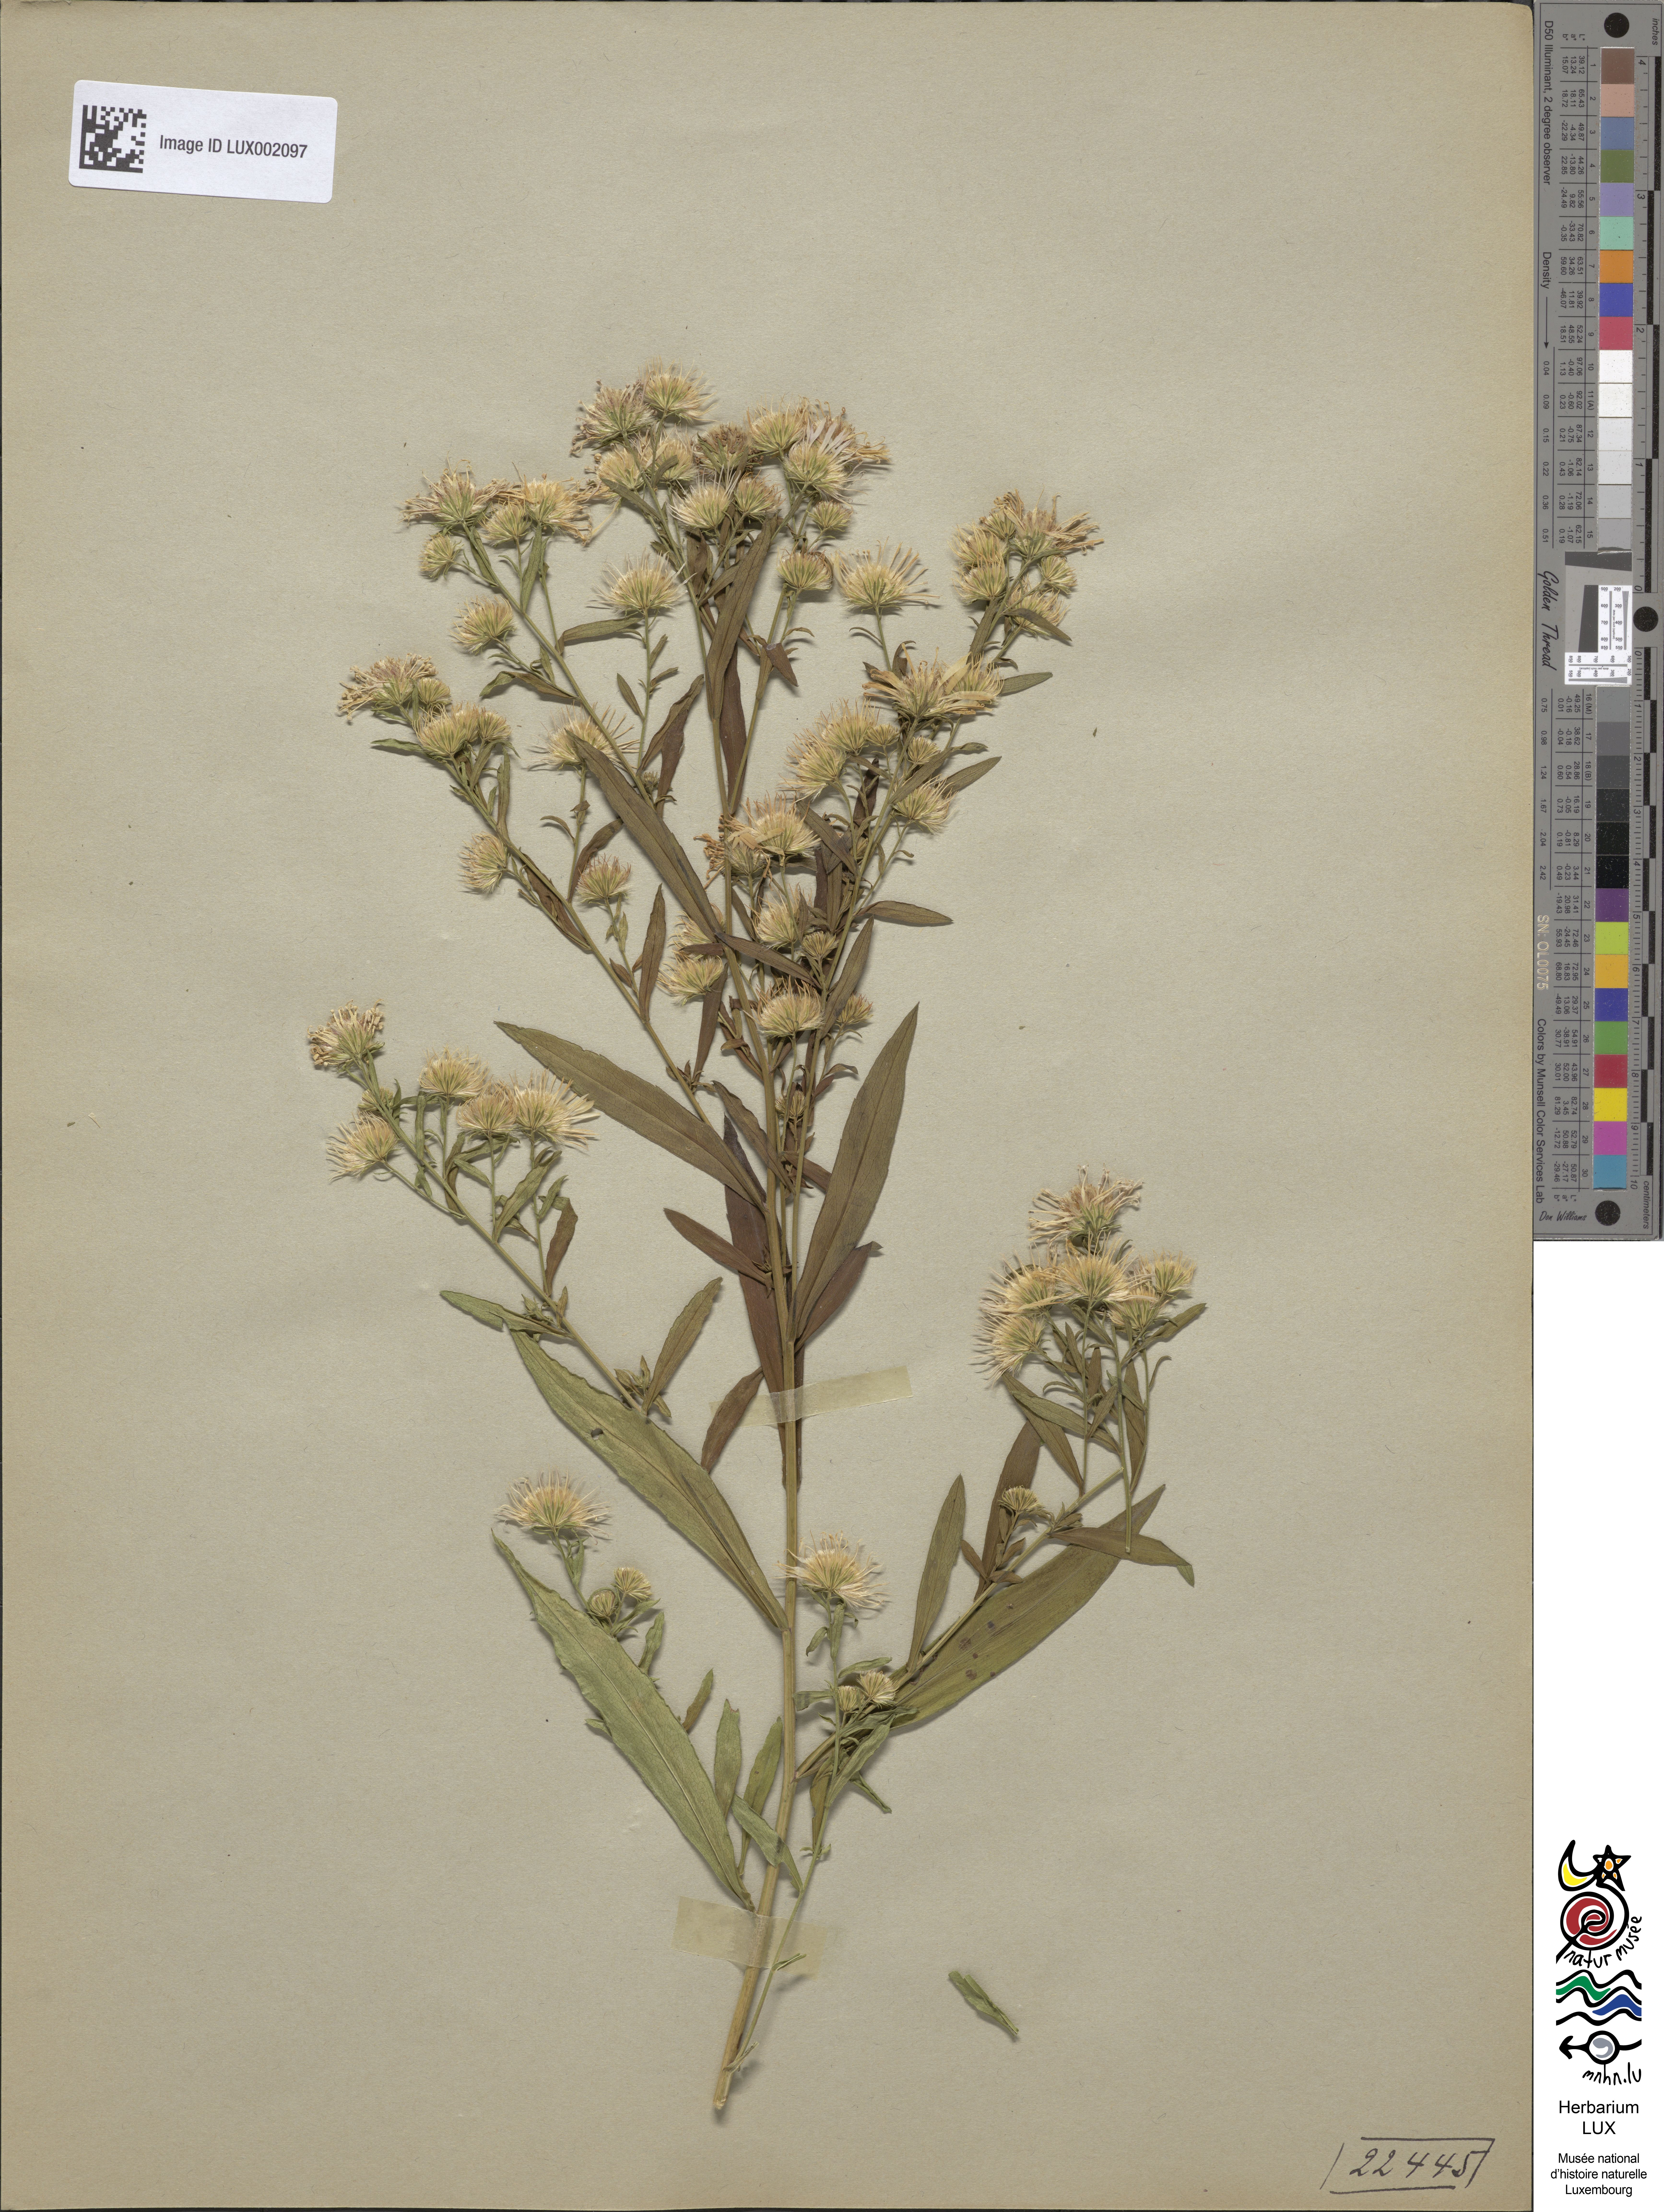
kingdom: Plantae
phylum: Tracheophyta
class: Magnoliopsida
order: Asterales
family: Asteraceae
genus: Symphyotrichum
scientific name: Symphyotrichum lanceolatum
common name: Panicled aster
